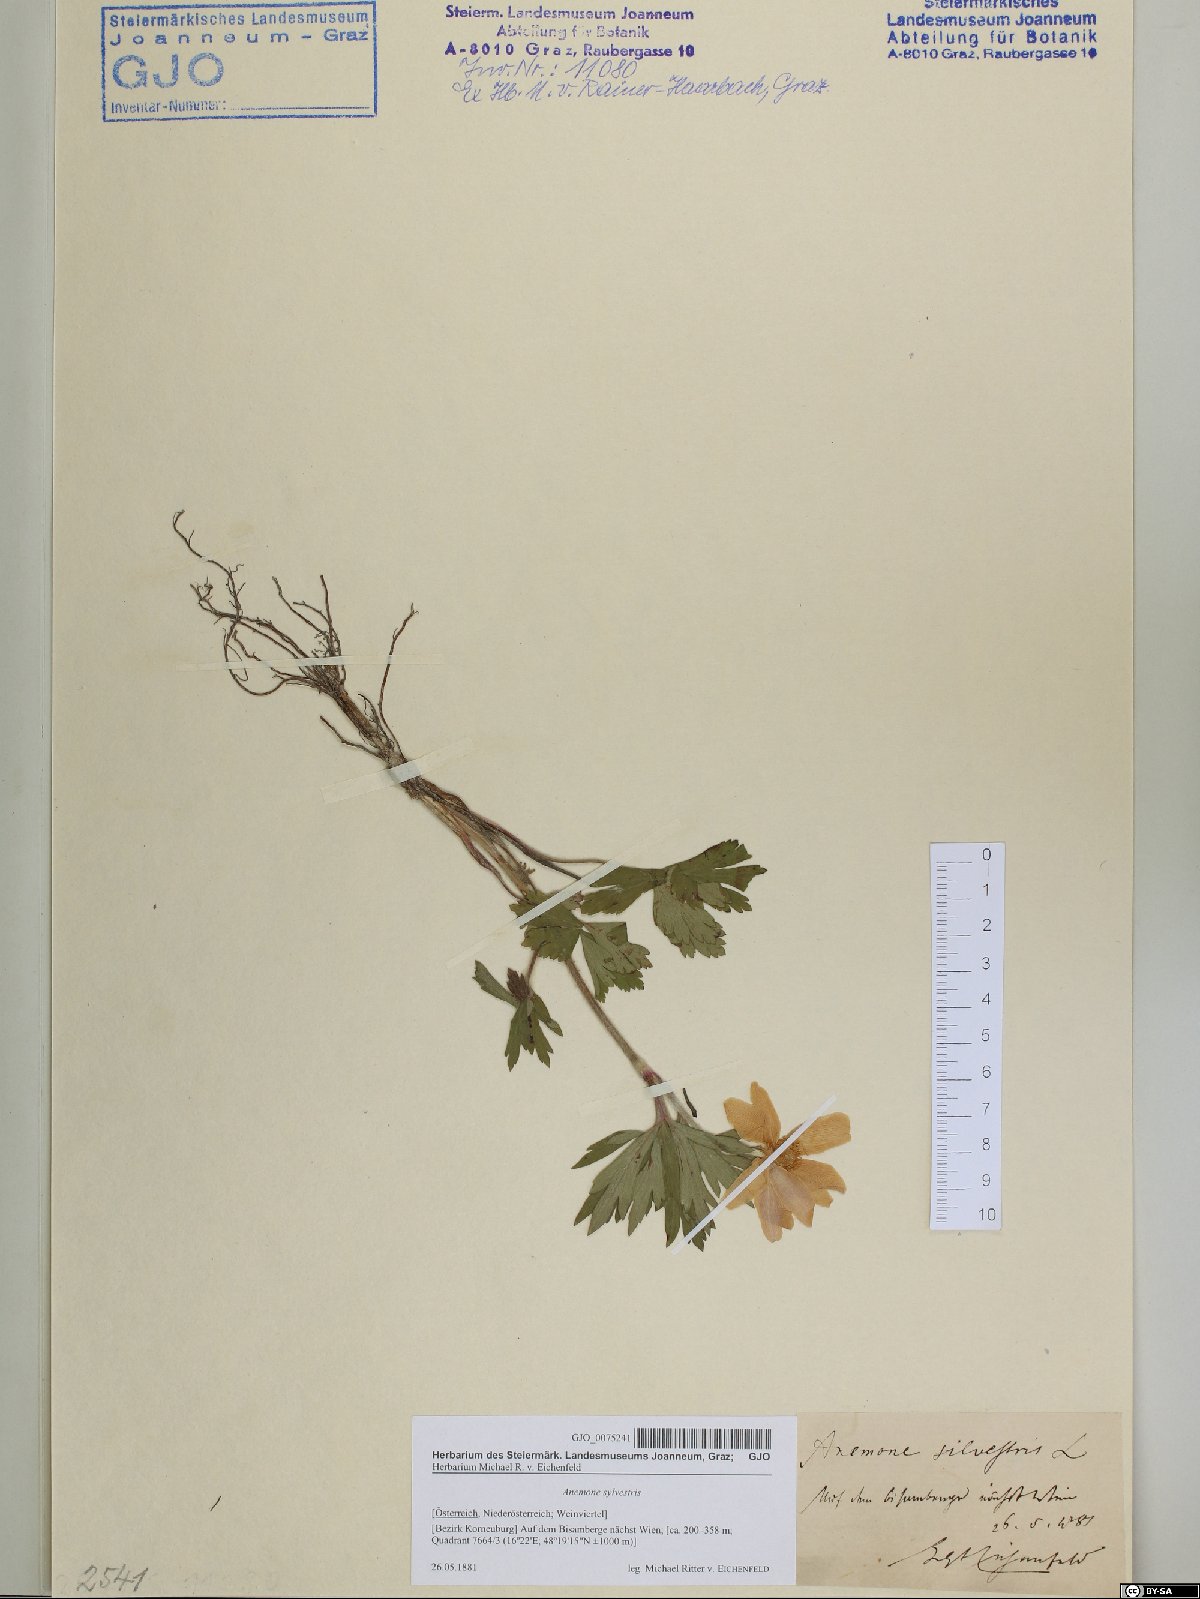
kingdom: Plantae
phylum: Tracheophyta
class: Magnoliopsida
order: Ranunculales
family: Ranunculaceae
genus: Anemone
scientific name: Anemone sylvestris
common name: Snowdrop anemone
